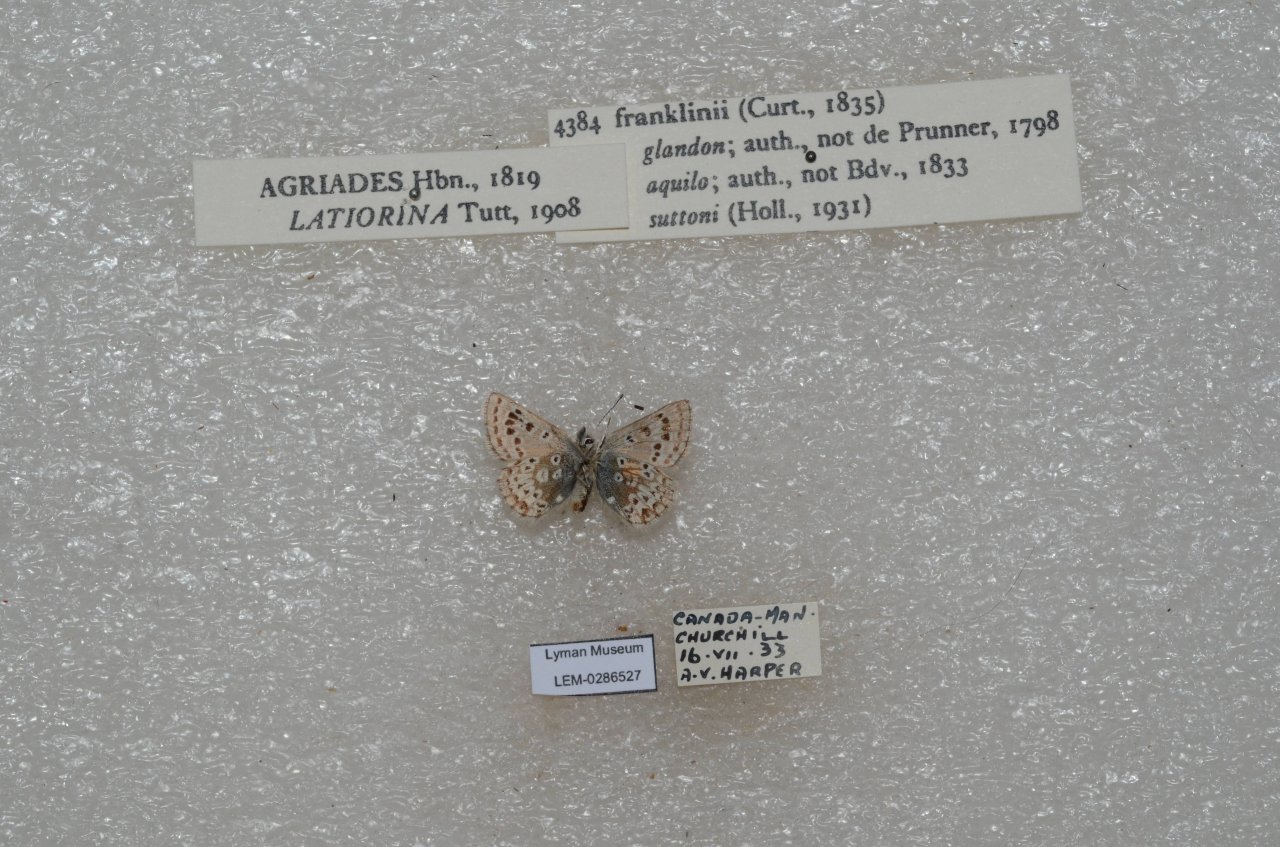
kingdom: Animalia
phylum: Arthropoda
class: Insecta
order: Lepidoptera
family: Lycaenidae
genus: Agriades
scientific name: Agriades glandon
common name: Arctic Blue
